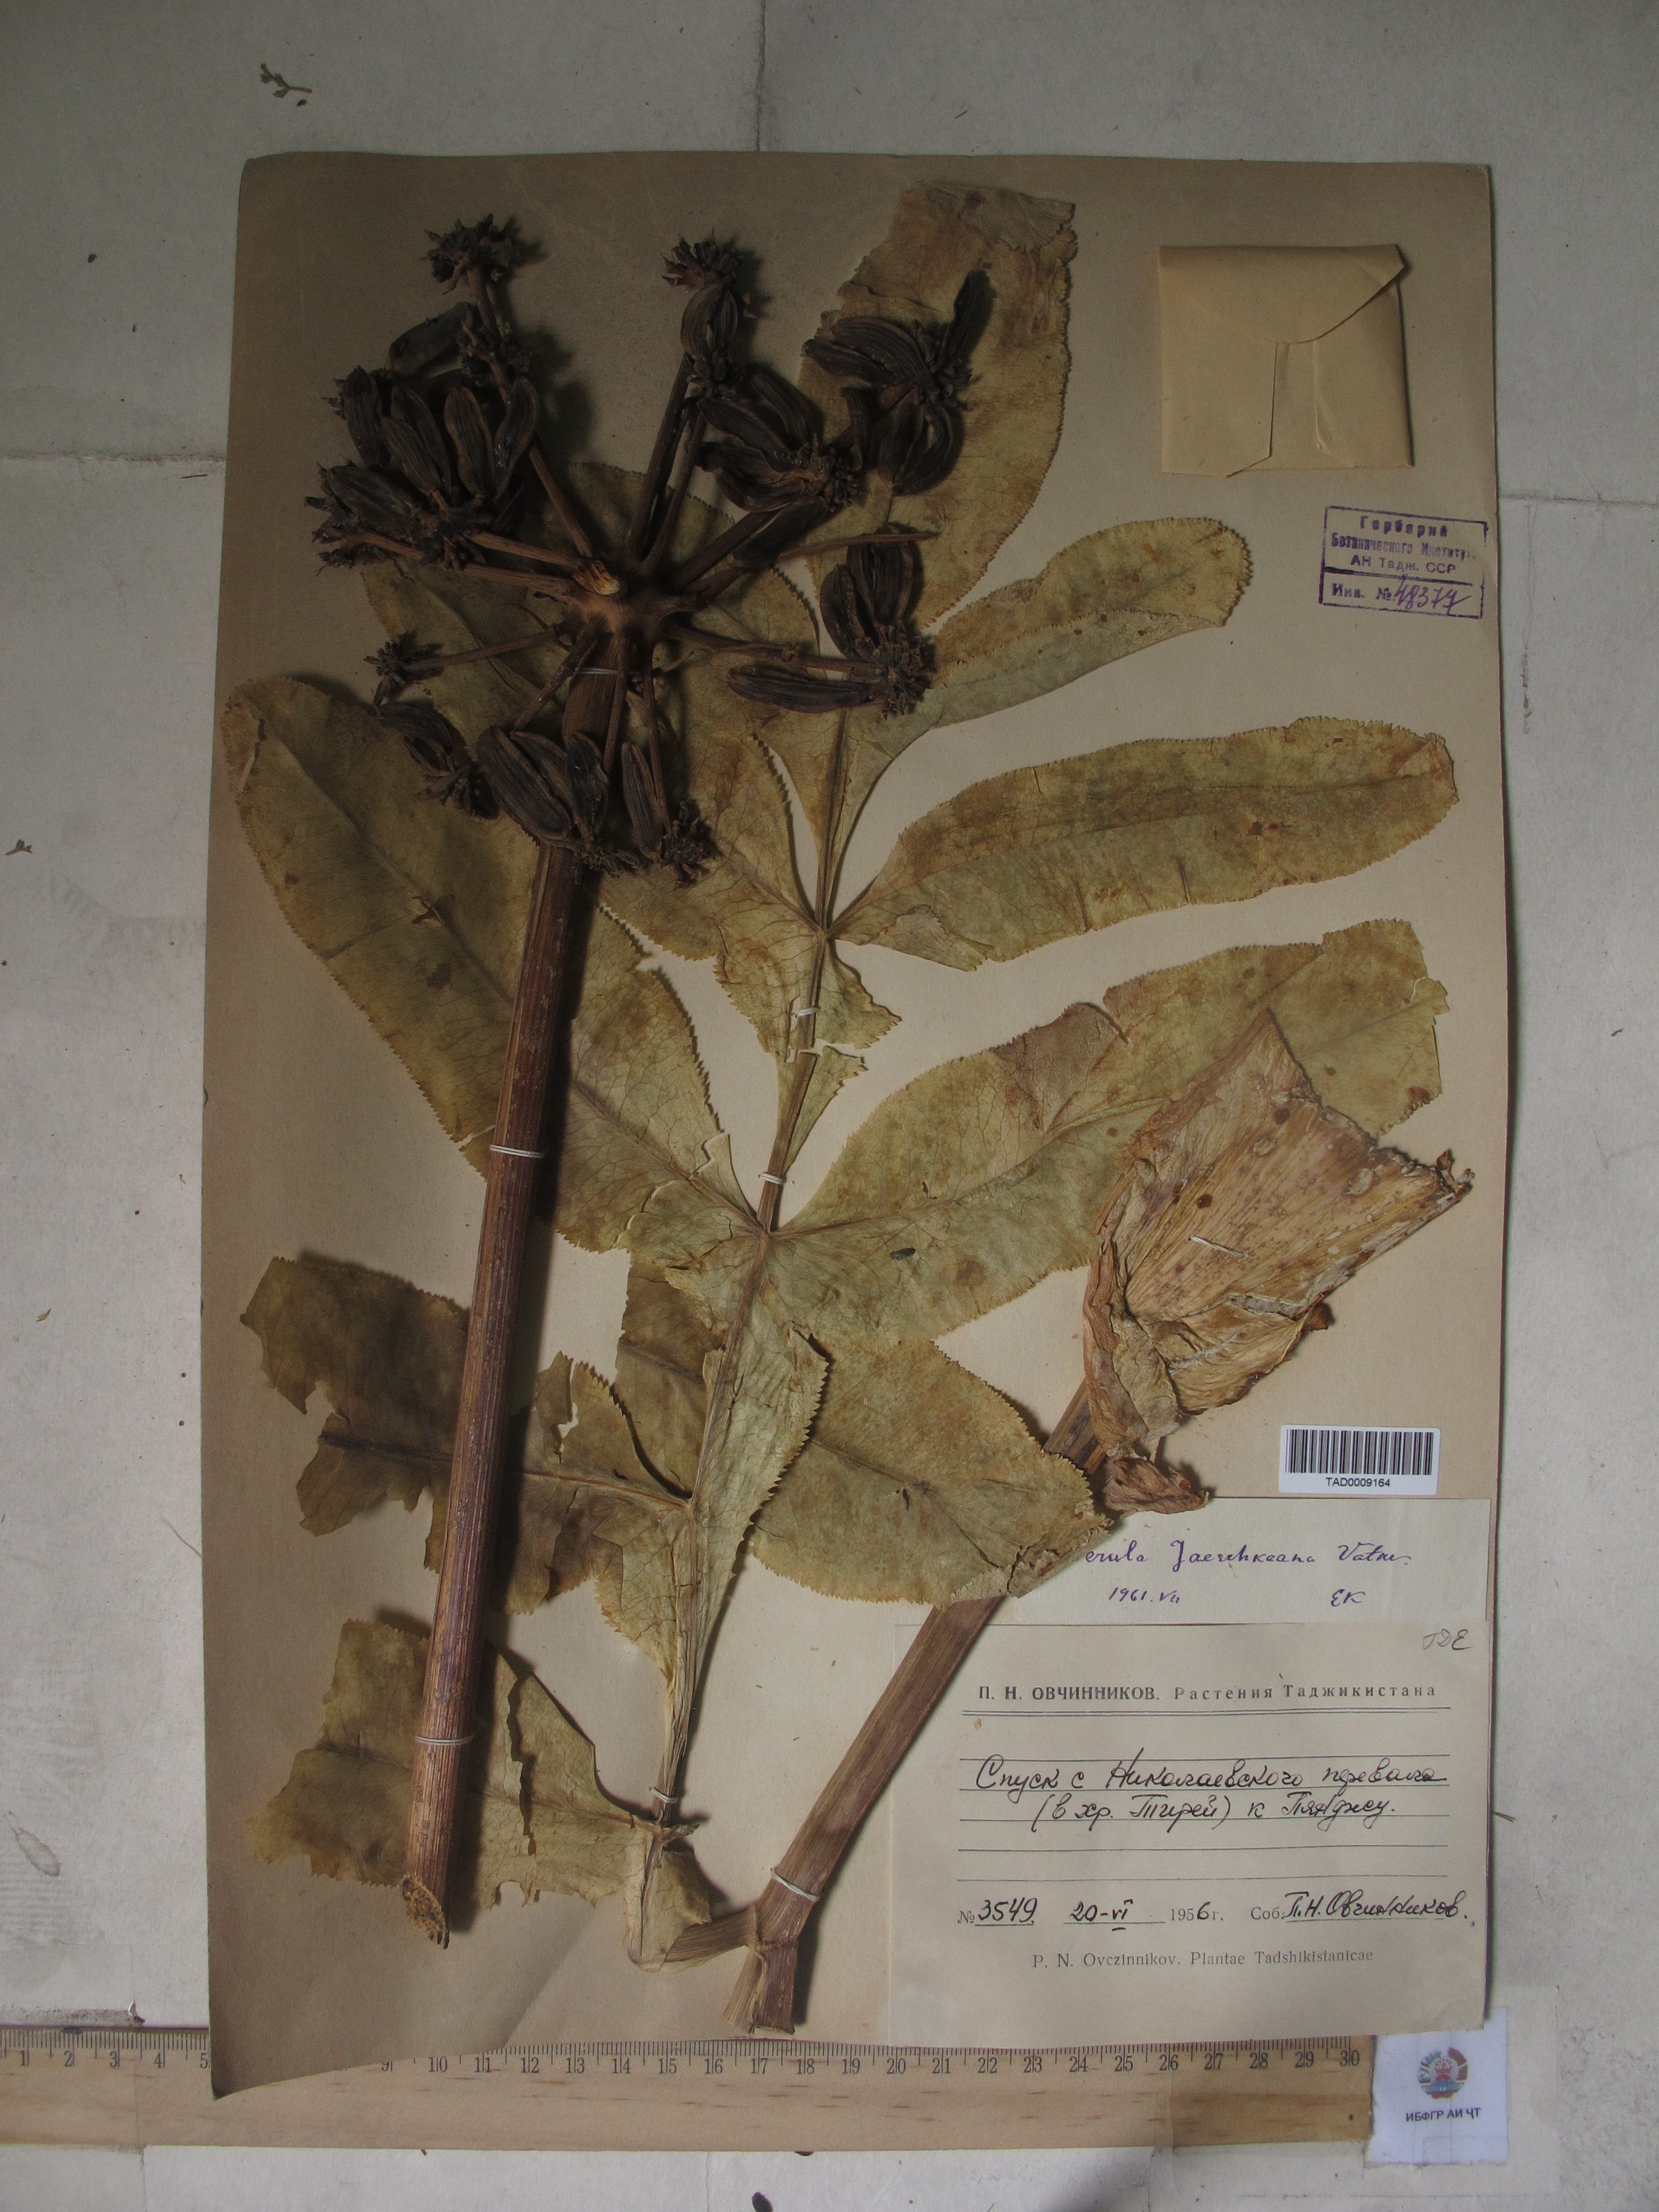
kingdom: Plantae
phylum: Tracheophyta
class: Magnoliopsida
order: Apiales
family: Apiaceae
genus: Ferula
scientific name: Ferula jaeschkeana
